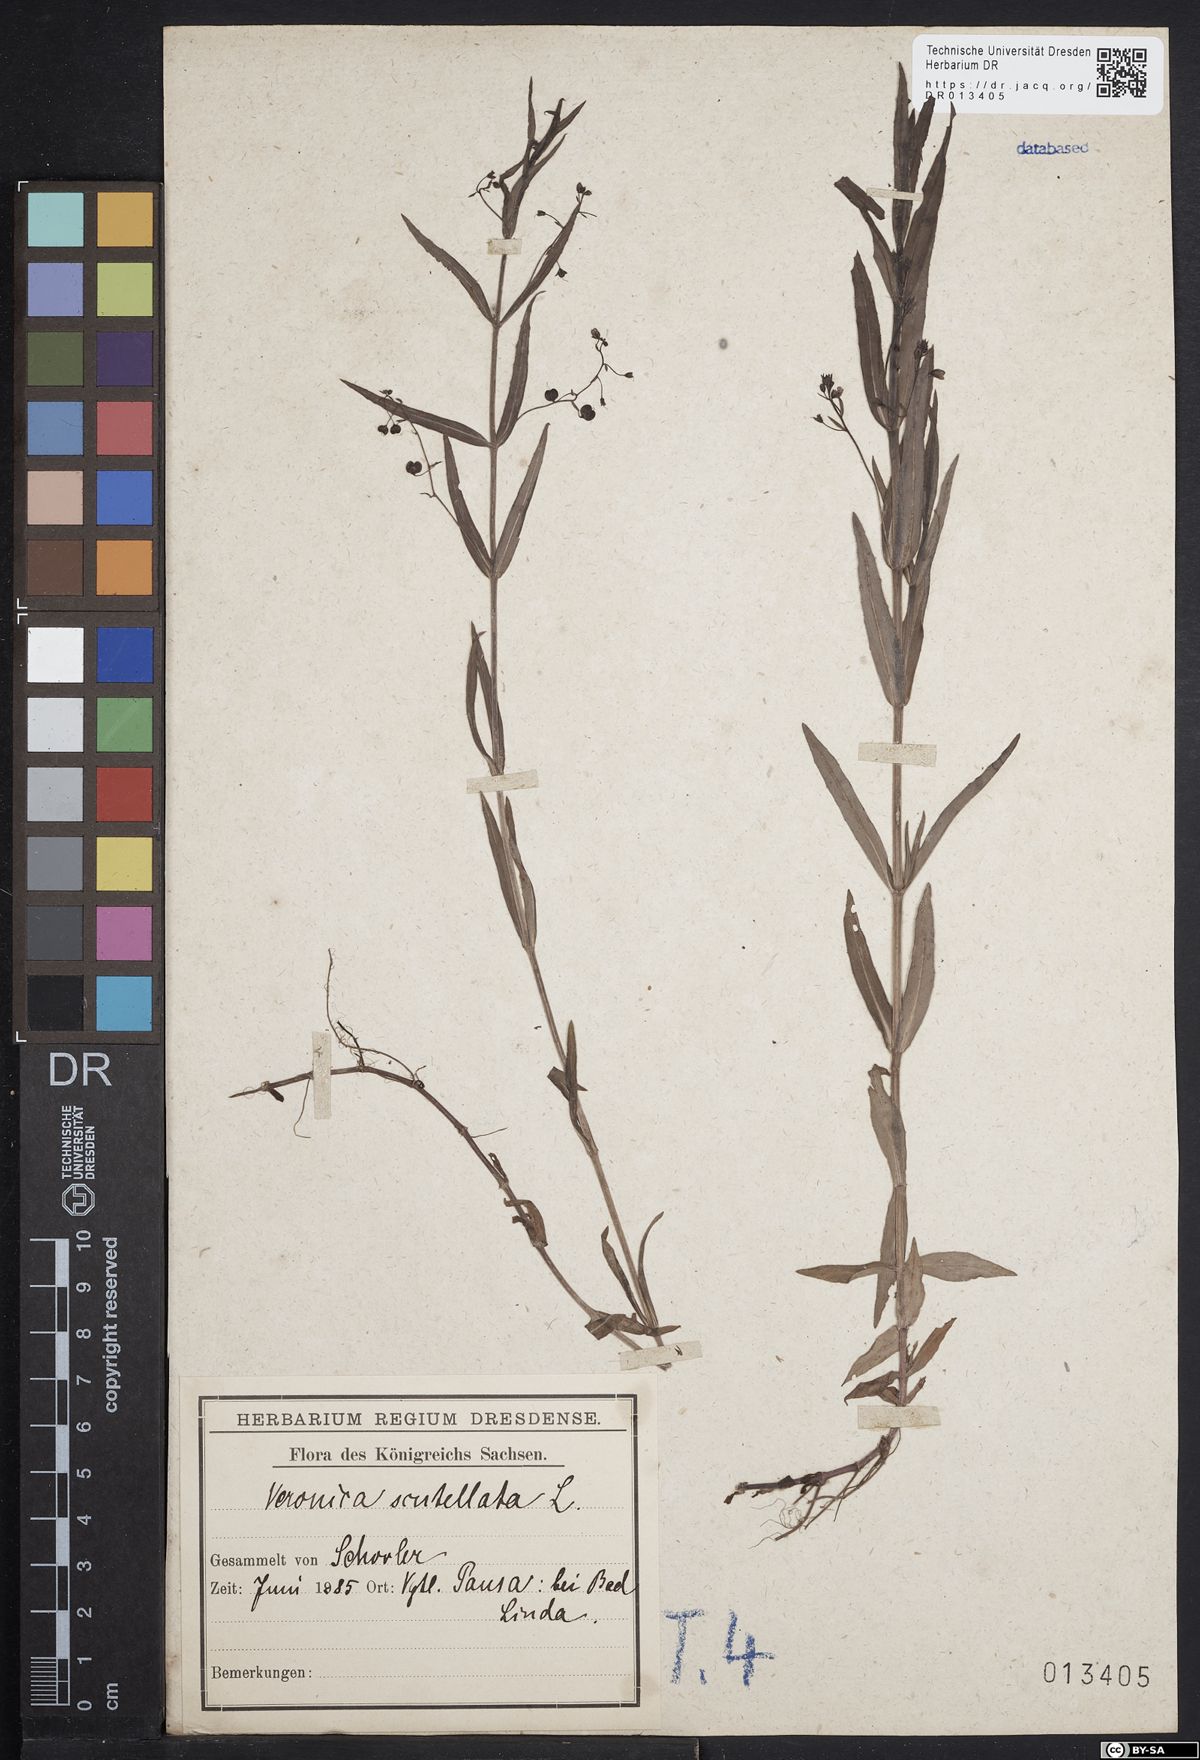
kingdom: Plantae
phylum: Tracheophyta
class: Magnoliopsida
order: Lamiales
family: Plantaginaceae
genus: Veronica
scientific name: Veronica scutellata
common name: Marsh speedwell
